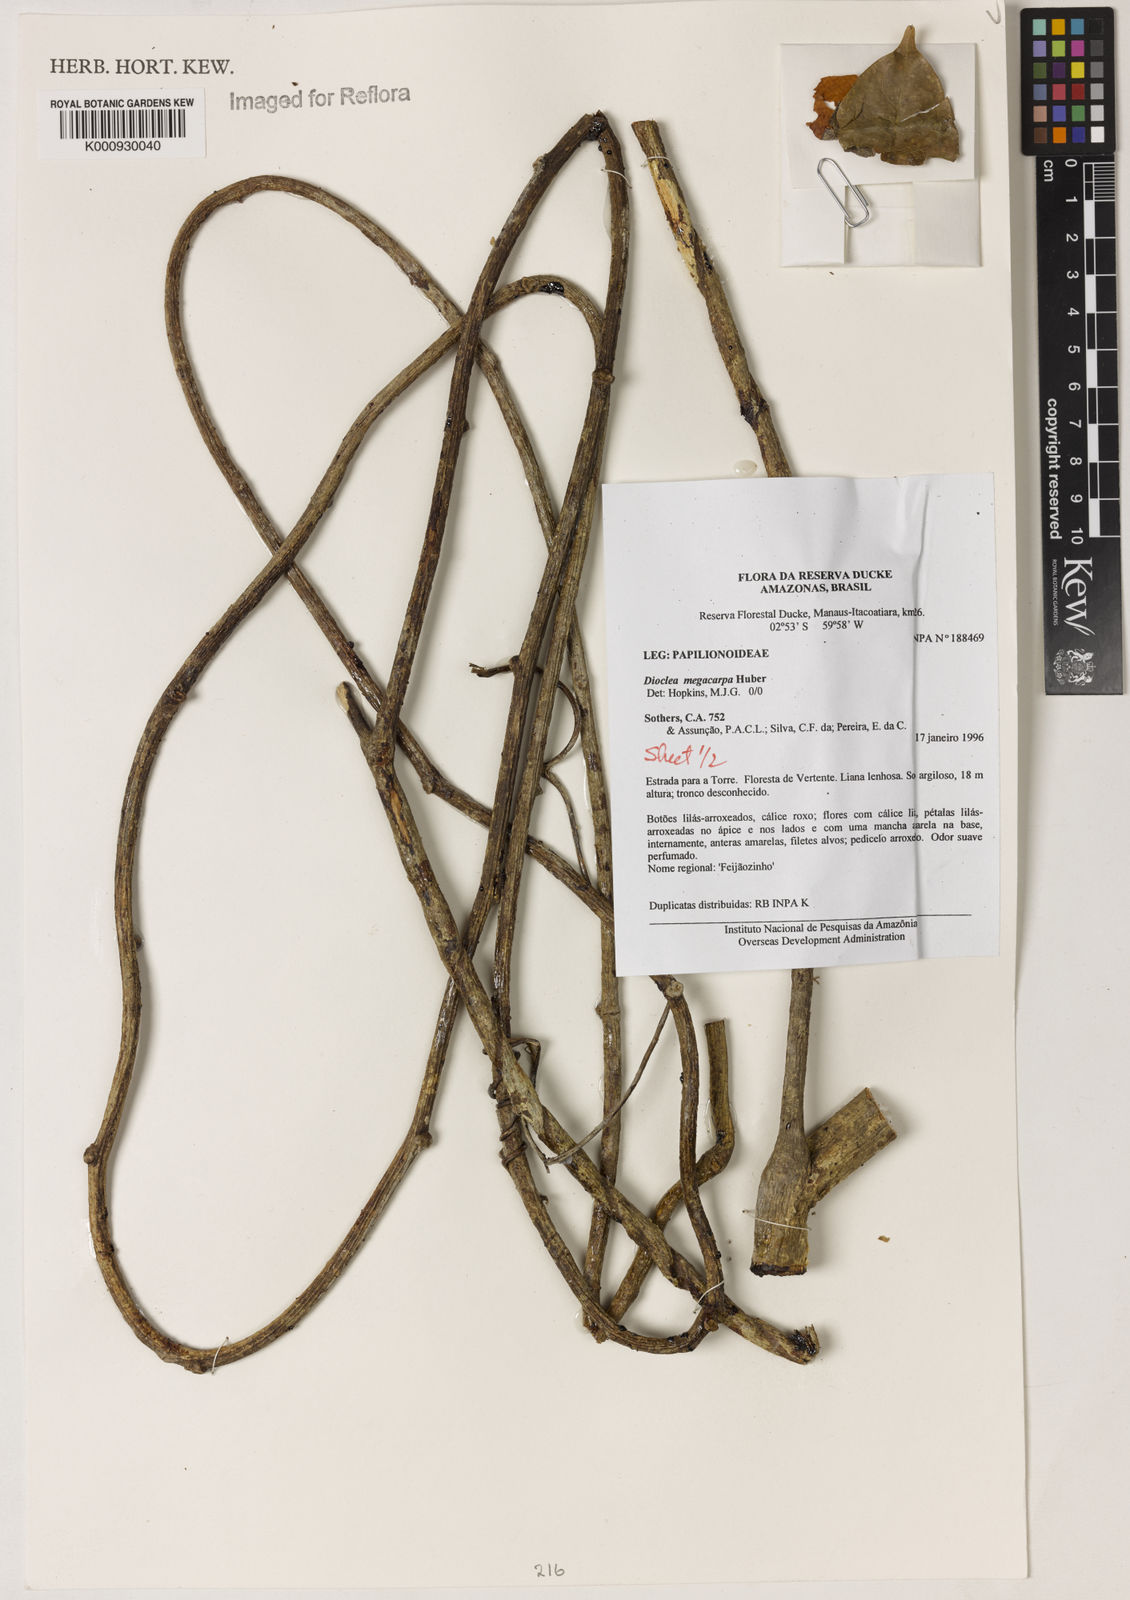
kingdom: Plantae
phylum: Tracheophyta
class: Magnoliopsida
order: Fabales
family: Fabaceae
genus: Macropsychanthus
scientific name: Macropsychanthus megacarpus
